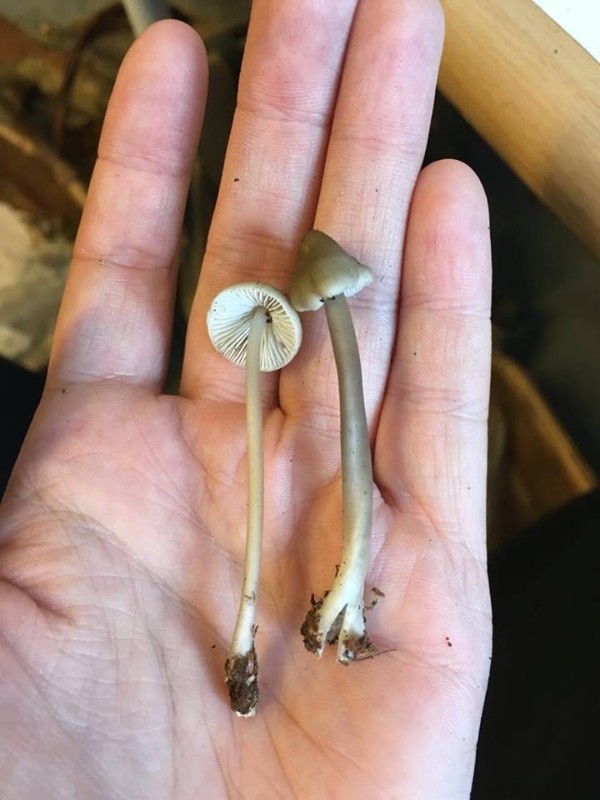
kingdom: Fungi
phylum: Basidiomycota
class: Agaricomycetes
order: Agaricales
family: Mycenaceae
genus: Mycena
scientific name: Mycena galericulata
